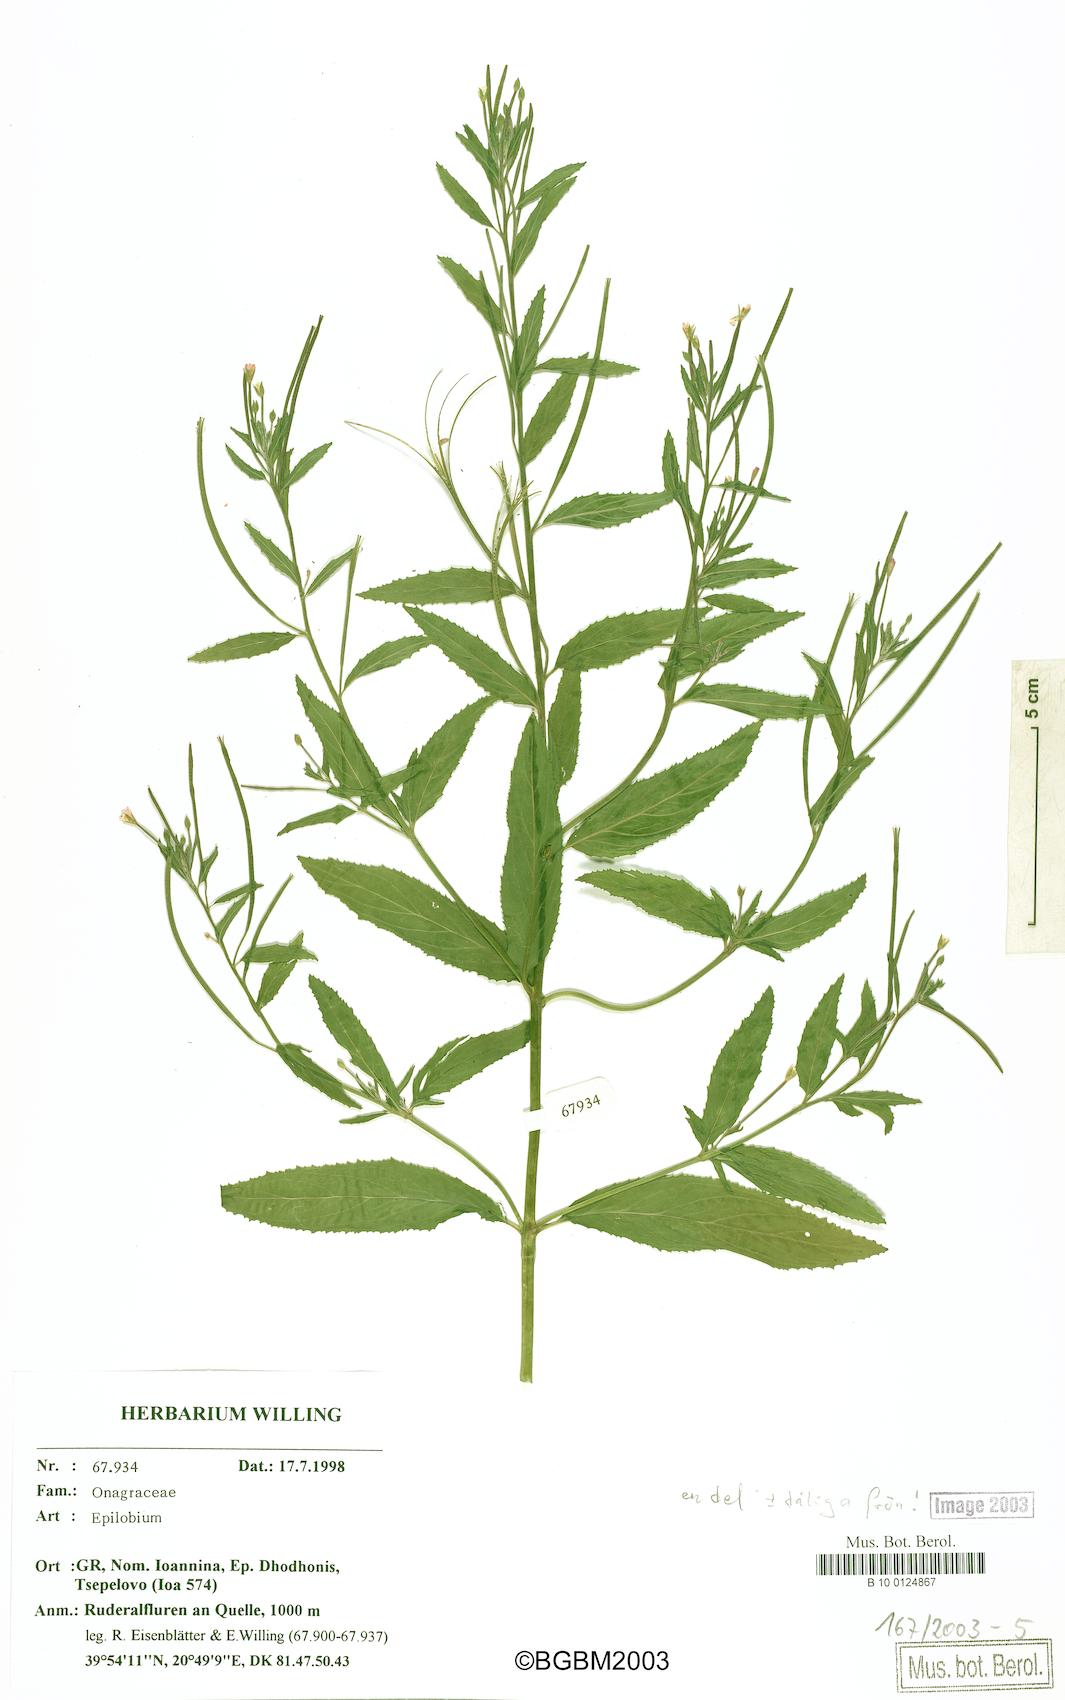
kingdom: Plantae
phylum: Tracheophyta
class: Magnoliopsida
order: Myrtales
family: Onagraceae
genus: Epilobium
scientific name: Epilobium
